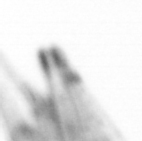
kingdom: Chromista
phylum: Ochrophyta
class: Bacillariophyceae
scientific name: Bacillariophyceae
